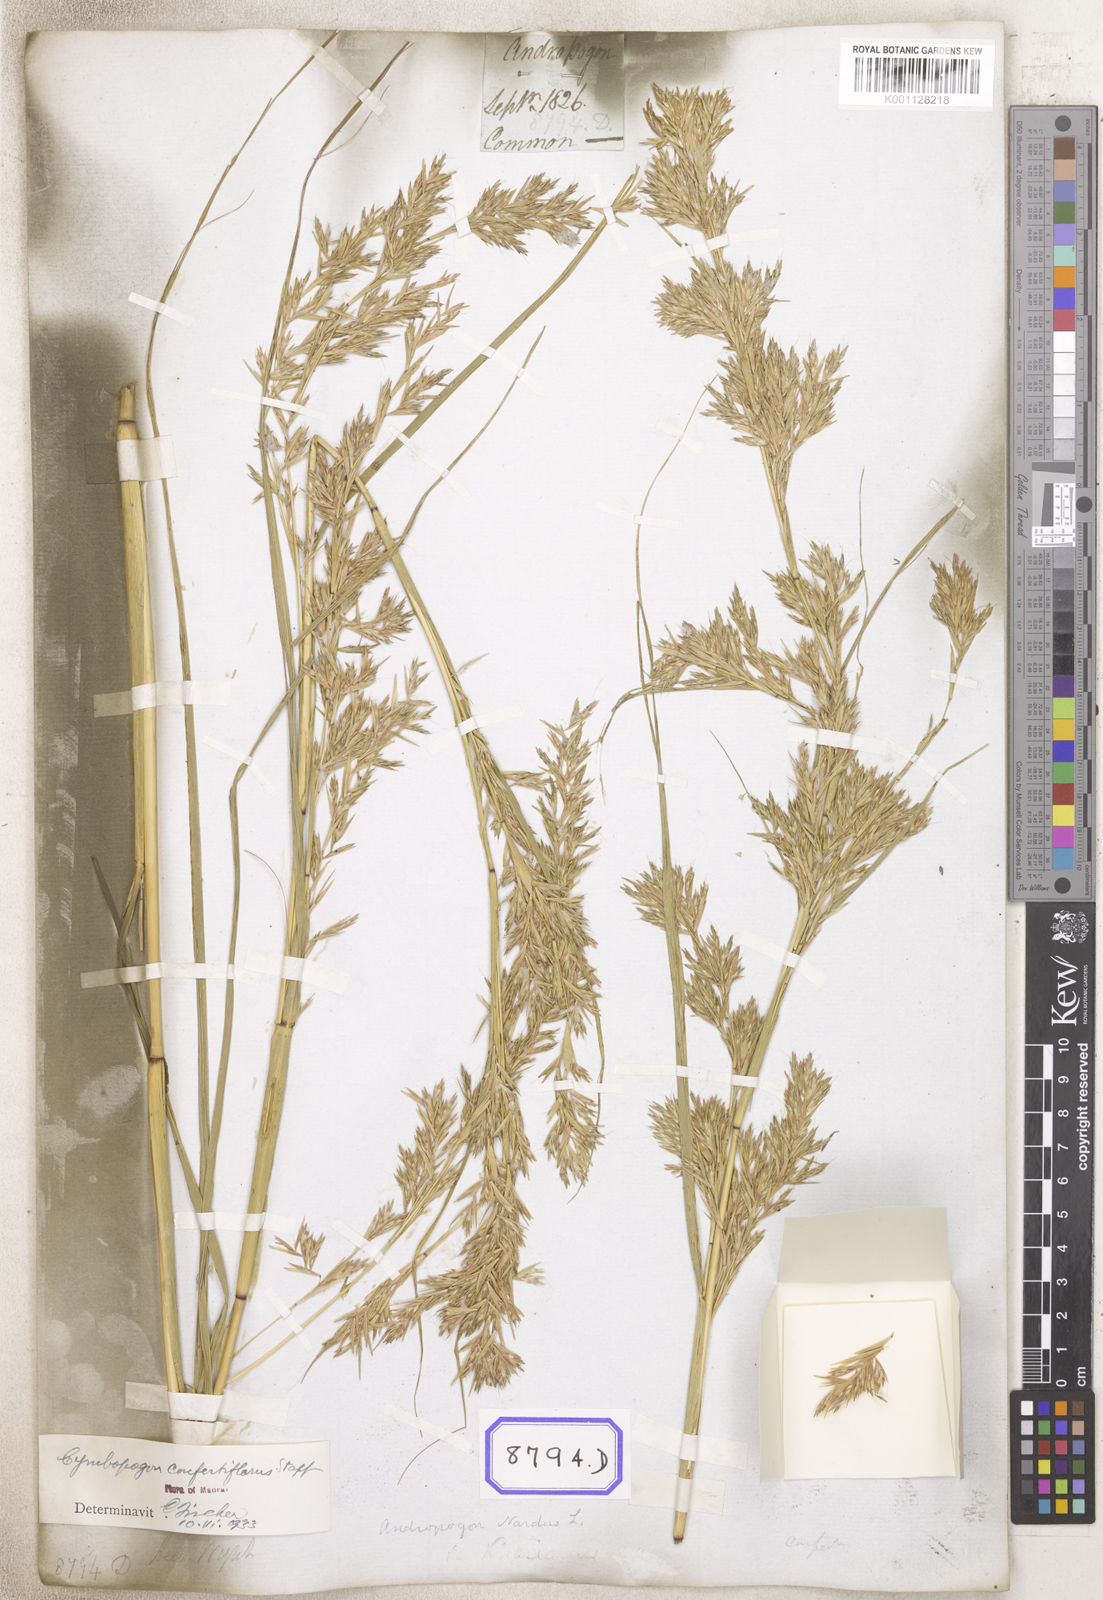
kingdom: Plantae
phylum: Tracheophyta
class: Liliopsida
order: Poales
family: Poaceae
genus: Cymbopogon
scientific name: Cymbopogon schoenanthus
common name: Geranium grass
